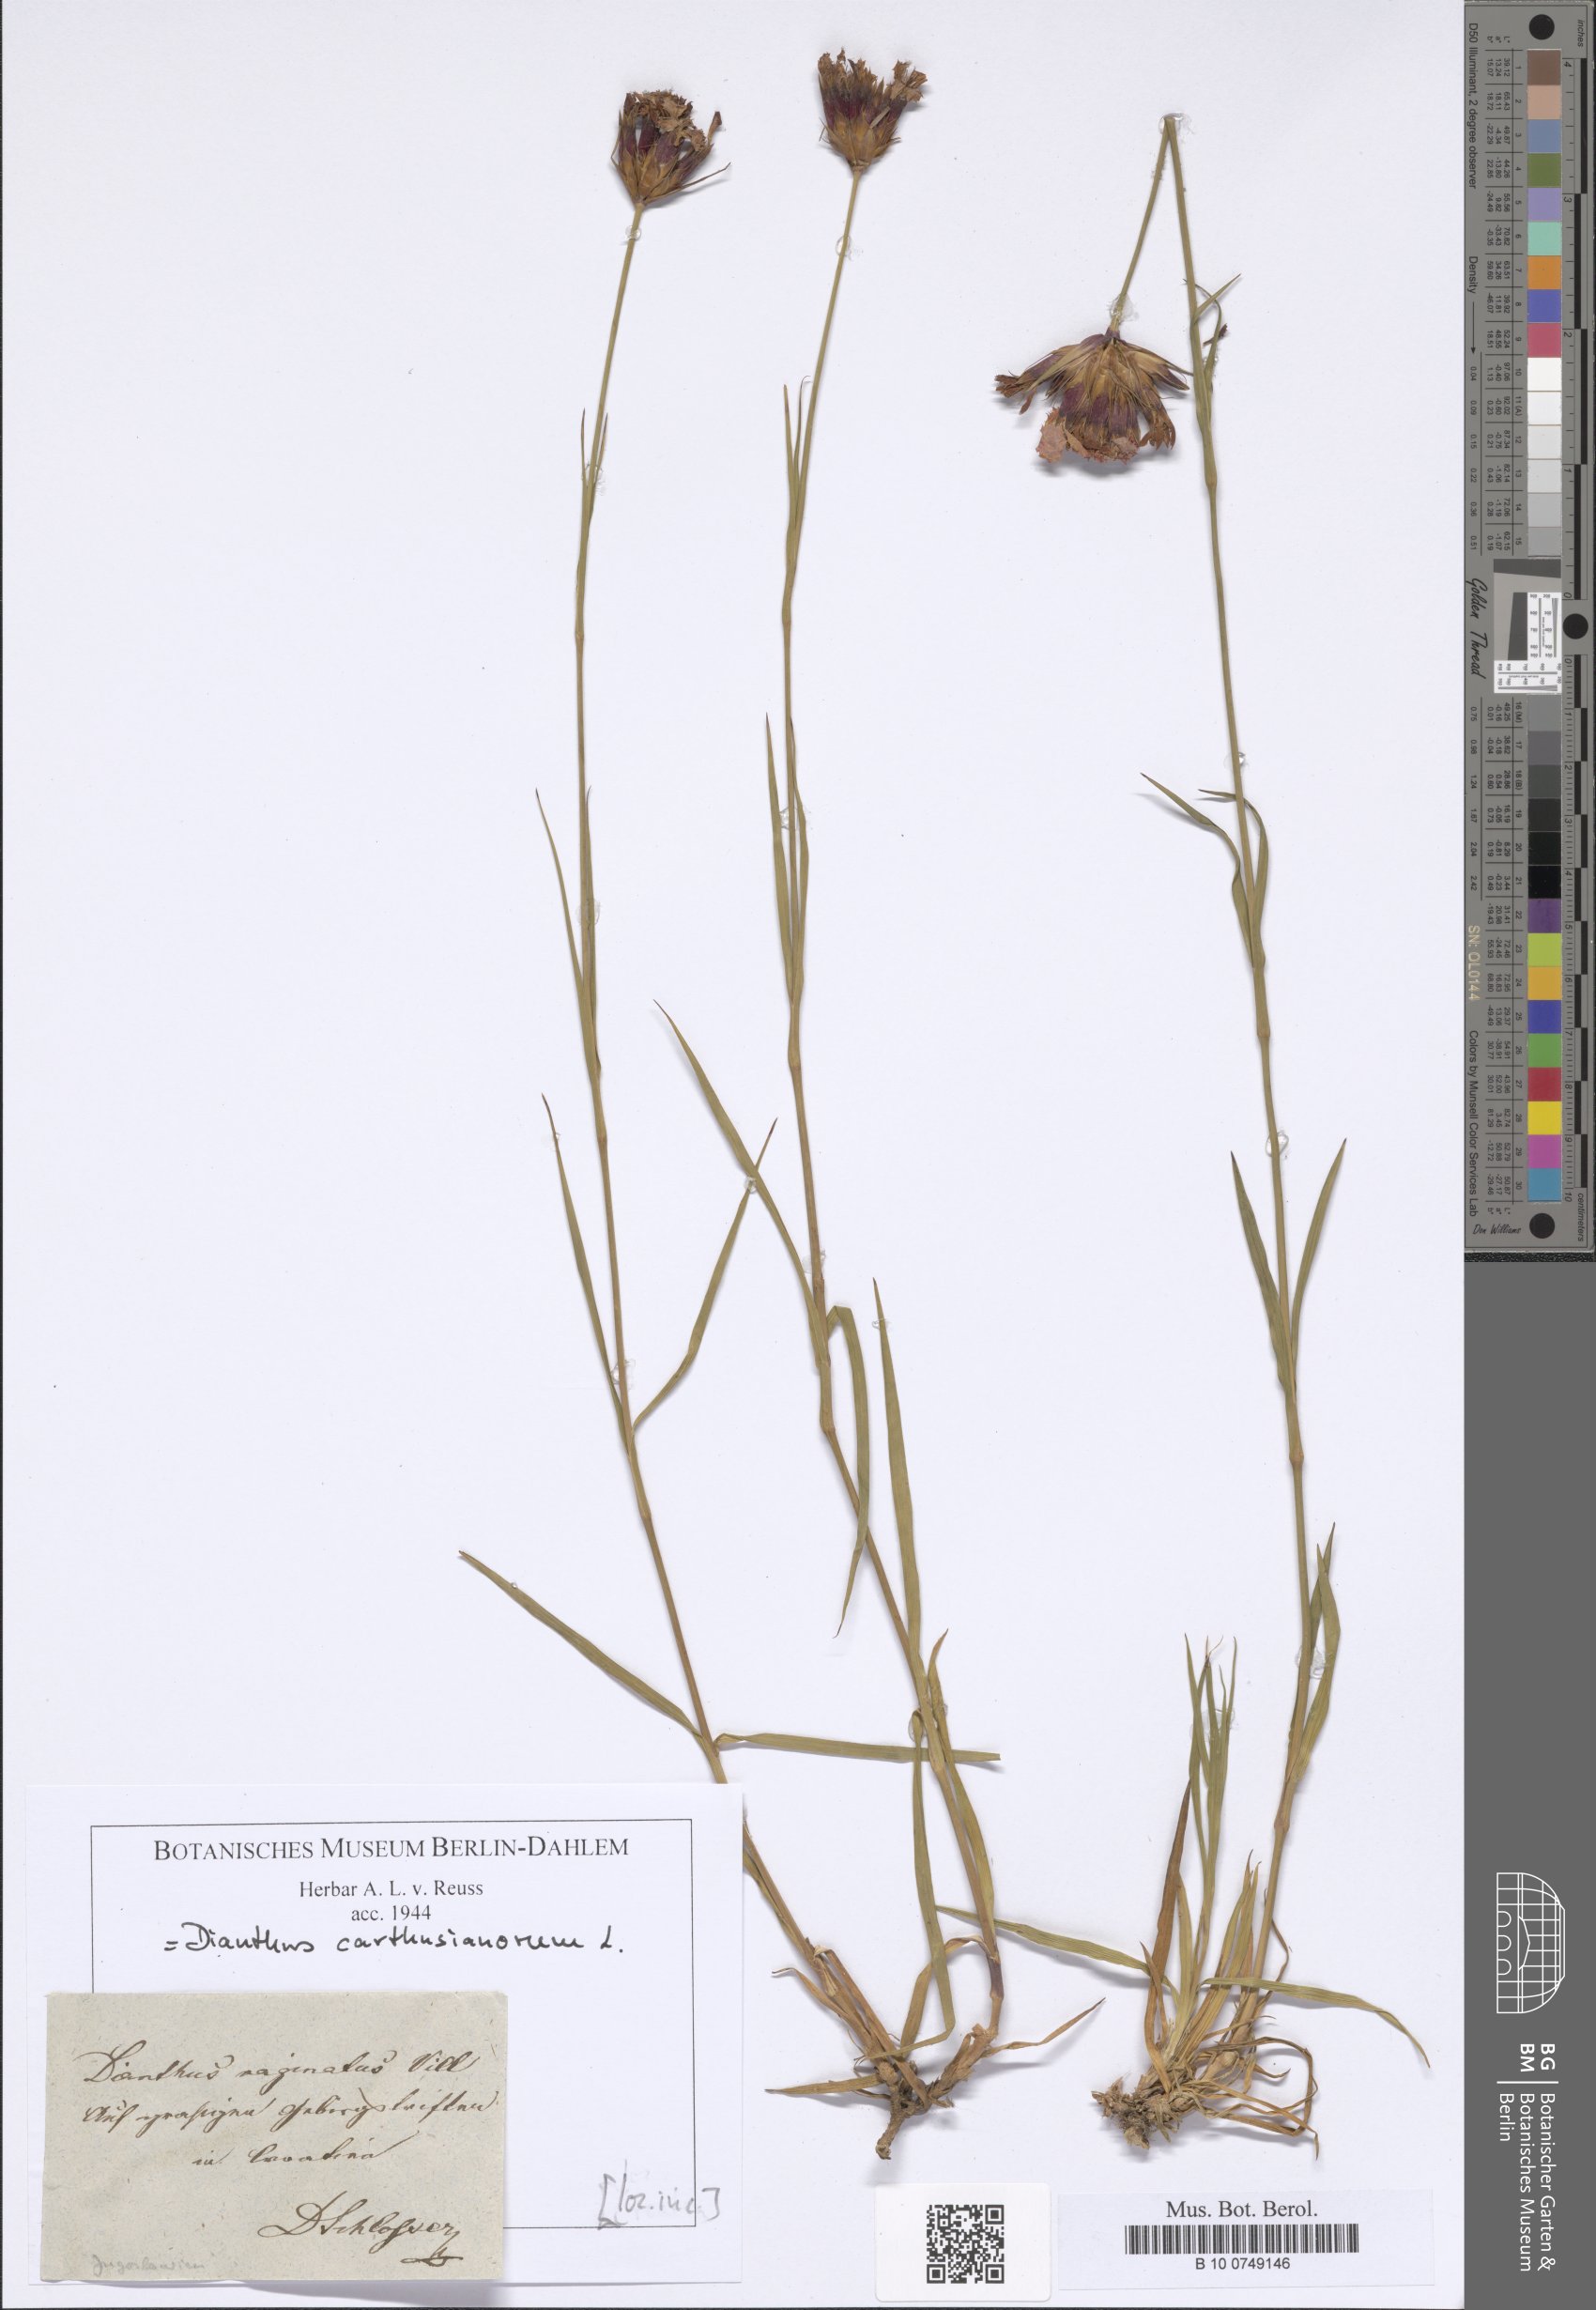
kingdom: Plantae
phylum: Tracheophyta
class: Magnoliopsida
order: Caryophyllales
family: Caryophyllaceae
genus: Dianthus
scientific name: Dianthus carthusianorum
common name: Carthusian pink
